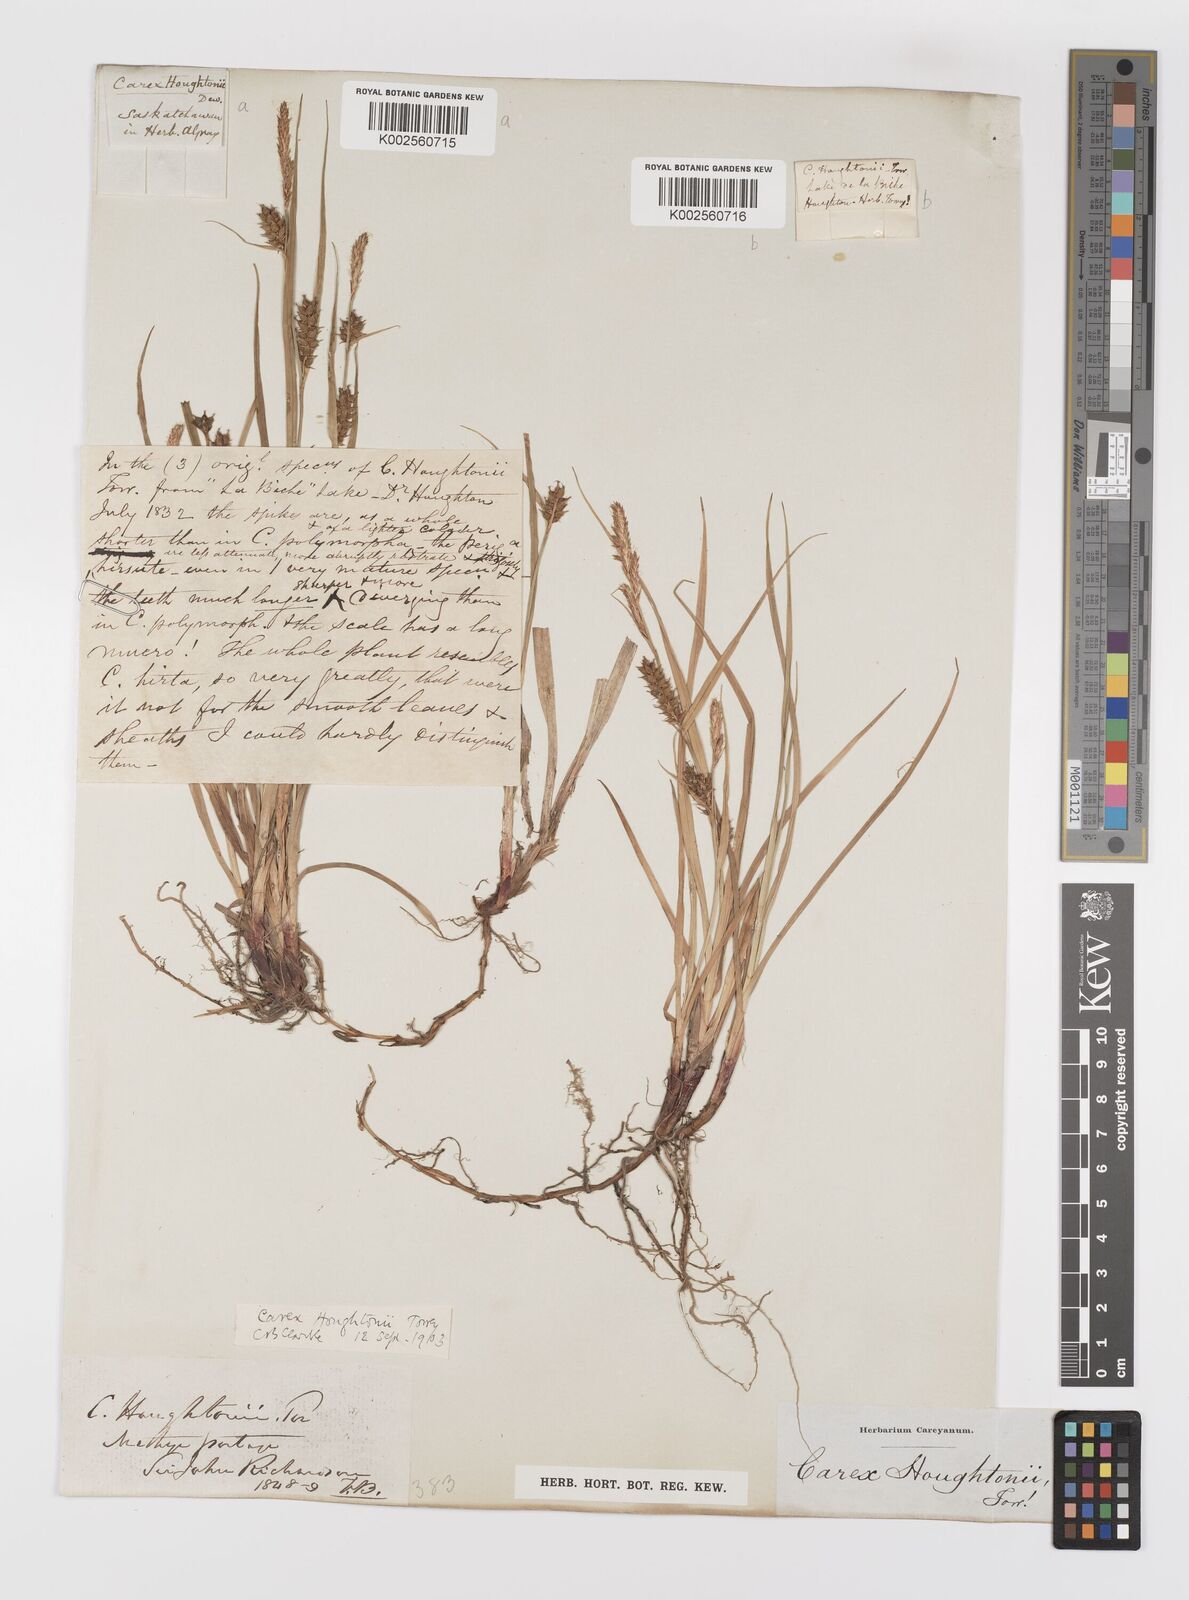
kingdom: Plantae
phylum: Tracheophyta
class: Liliopsida
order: Poales
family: Cyperaceae
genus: Carex
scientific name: Carex houghtoniana
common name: Houghton's sedge
